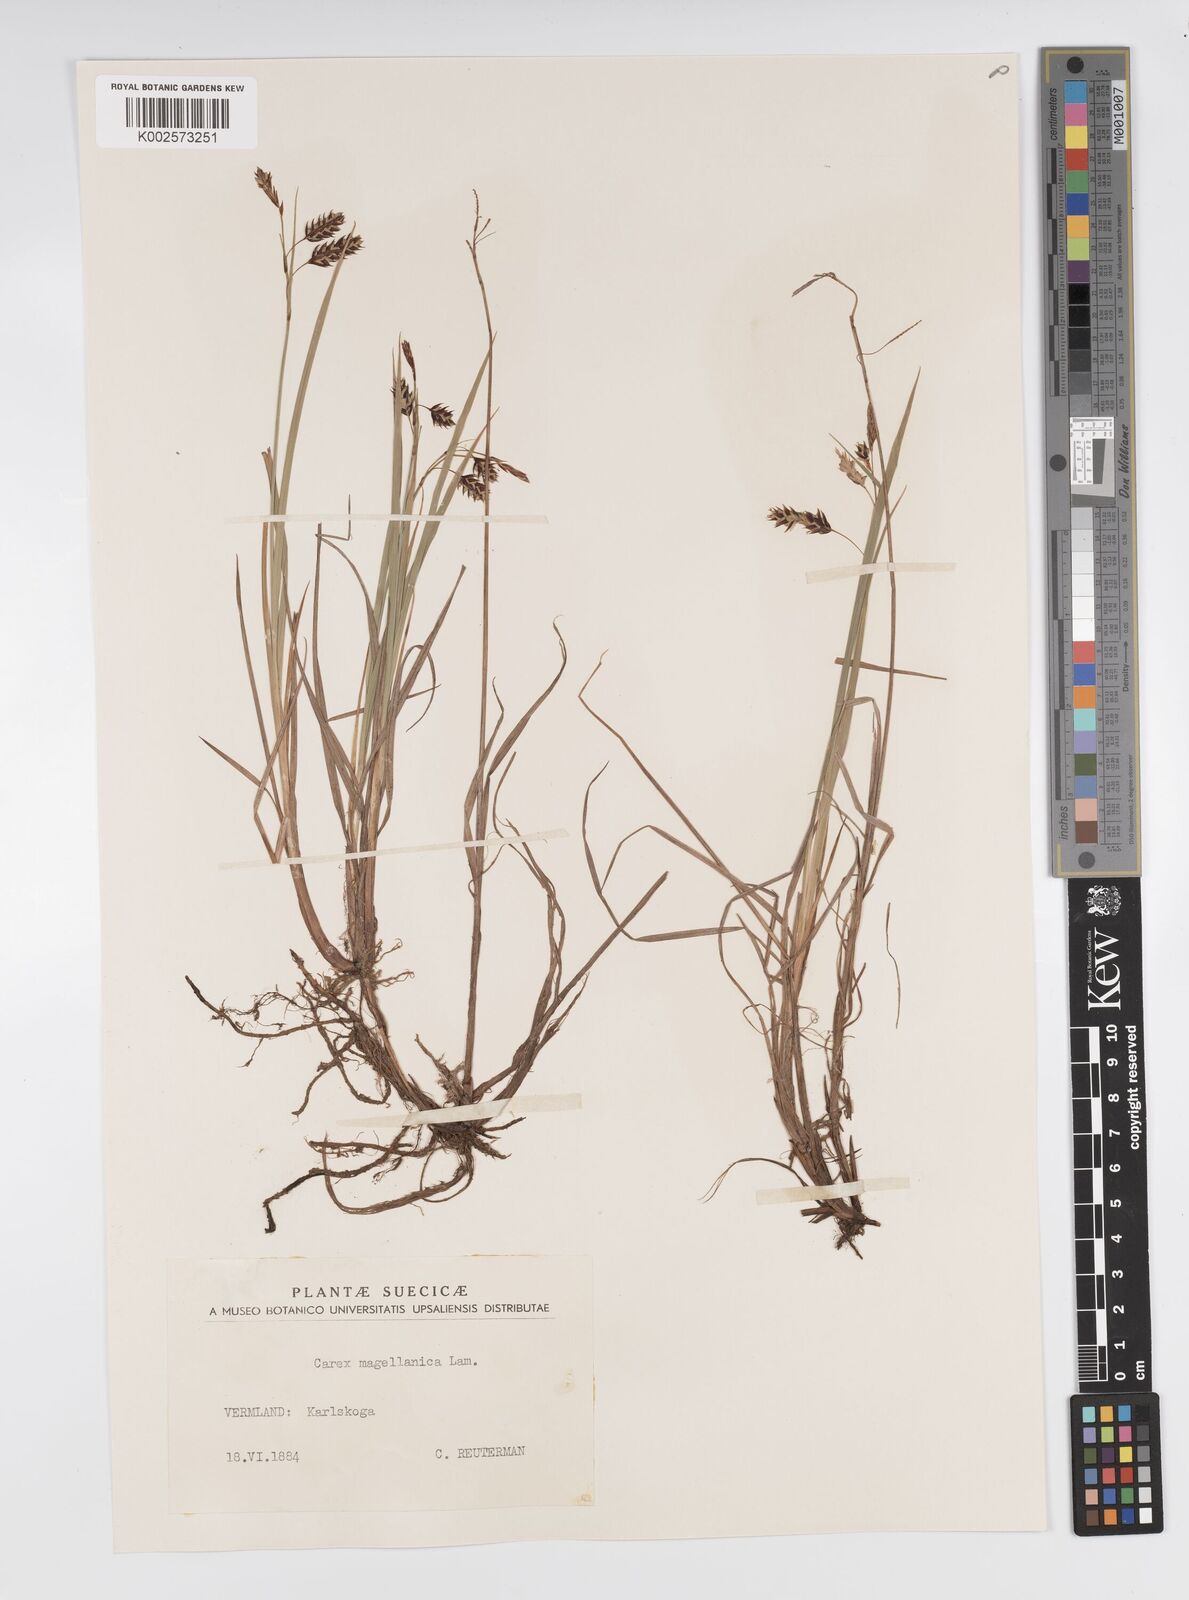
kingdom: Plantae
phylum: Tracheophyta
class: Liliopsida
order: Poales
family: Cyperaceae
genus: Carex
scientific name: Carex magellanica
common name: Bog sedge
